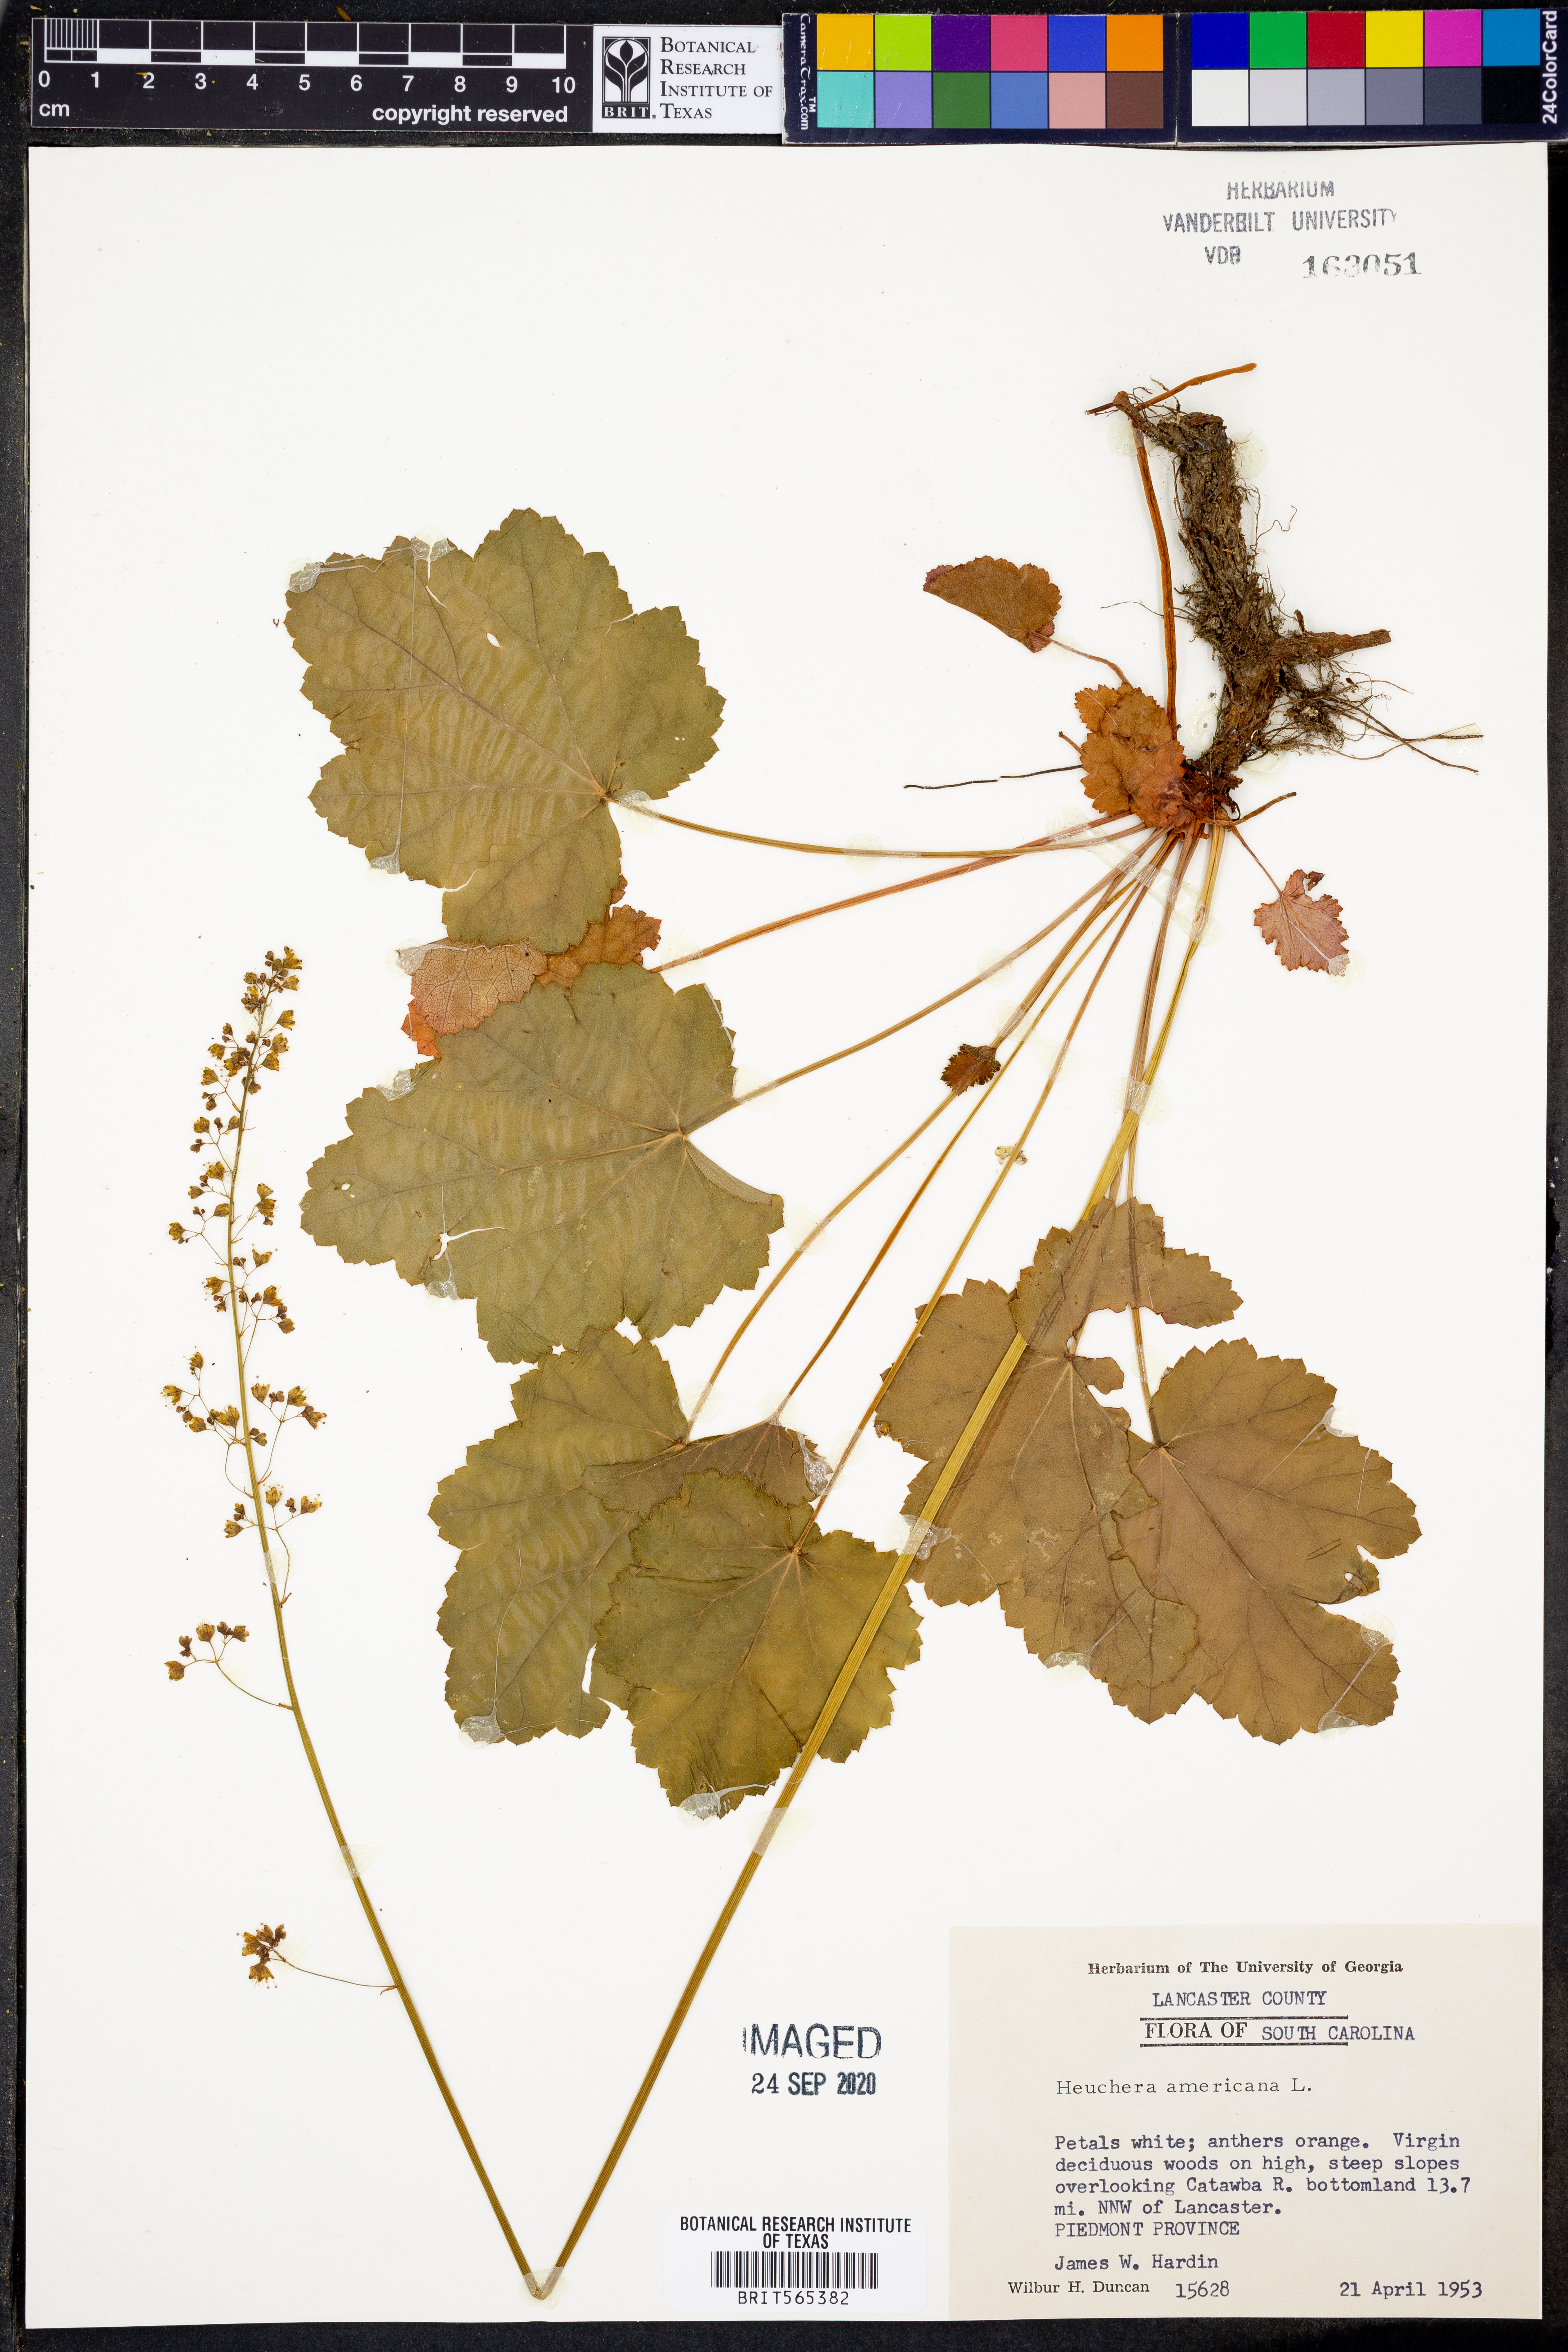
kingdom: Plantae
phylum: Tracheophyta
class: Magnoliopsida
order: Saxifragales
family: Saxifragaceae
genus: Heuchera
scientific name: Heuchera americana
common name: Alumroot
